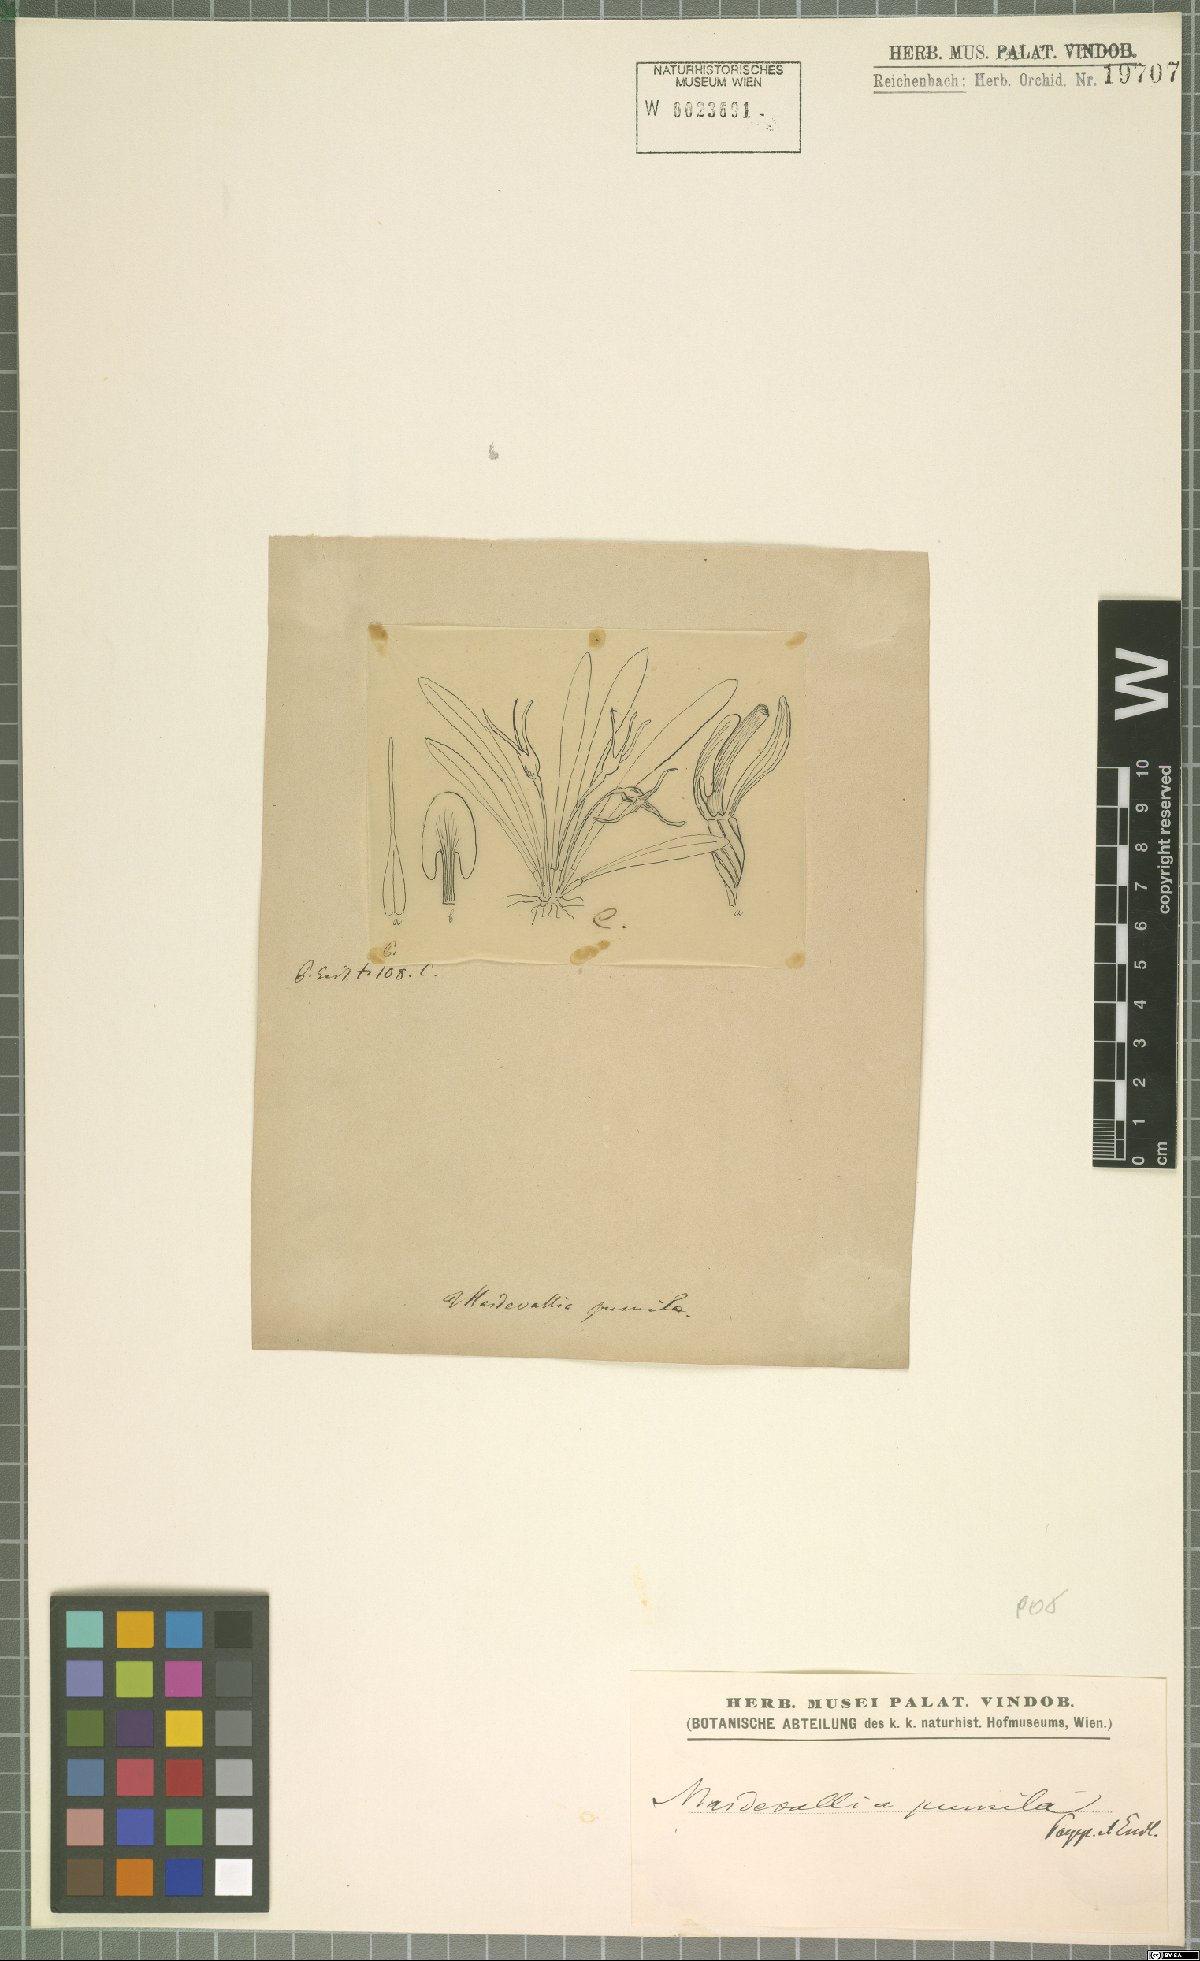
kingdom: Plantae
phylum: Tracheophyta
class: Liliopsida
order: Asparagales
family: Orchidaceae
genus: Masdevallia
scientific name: Masdevallia pumila
